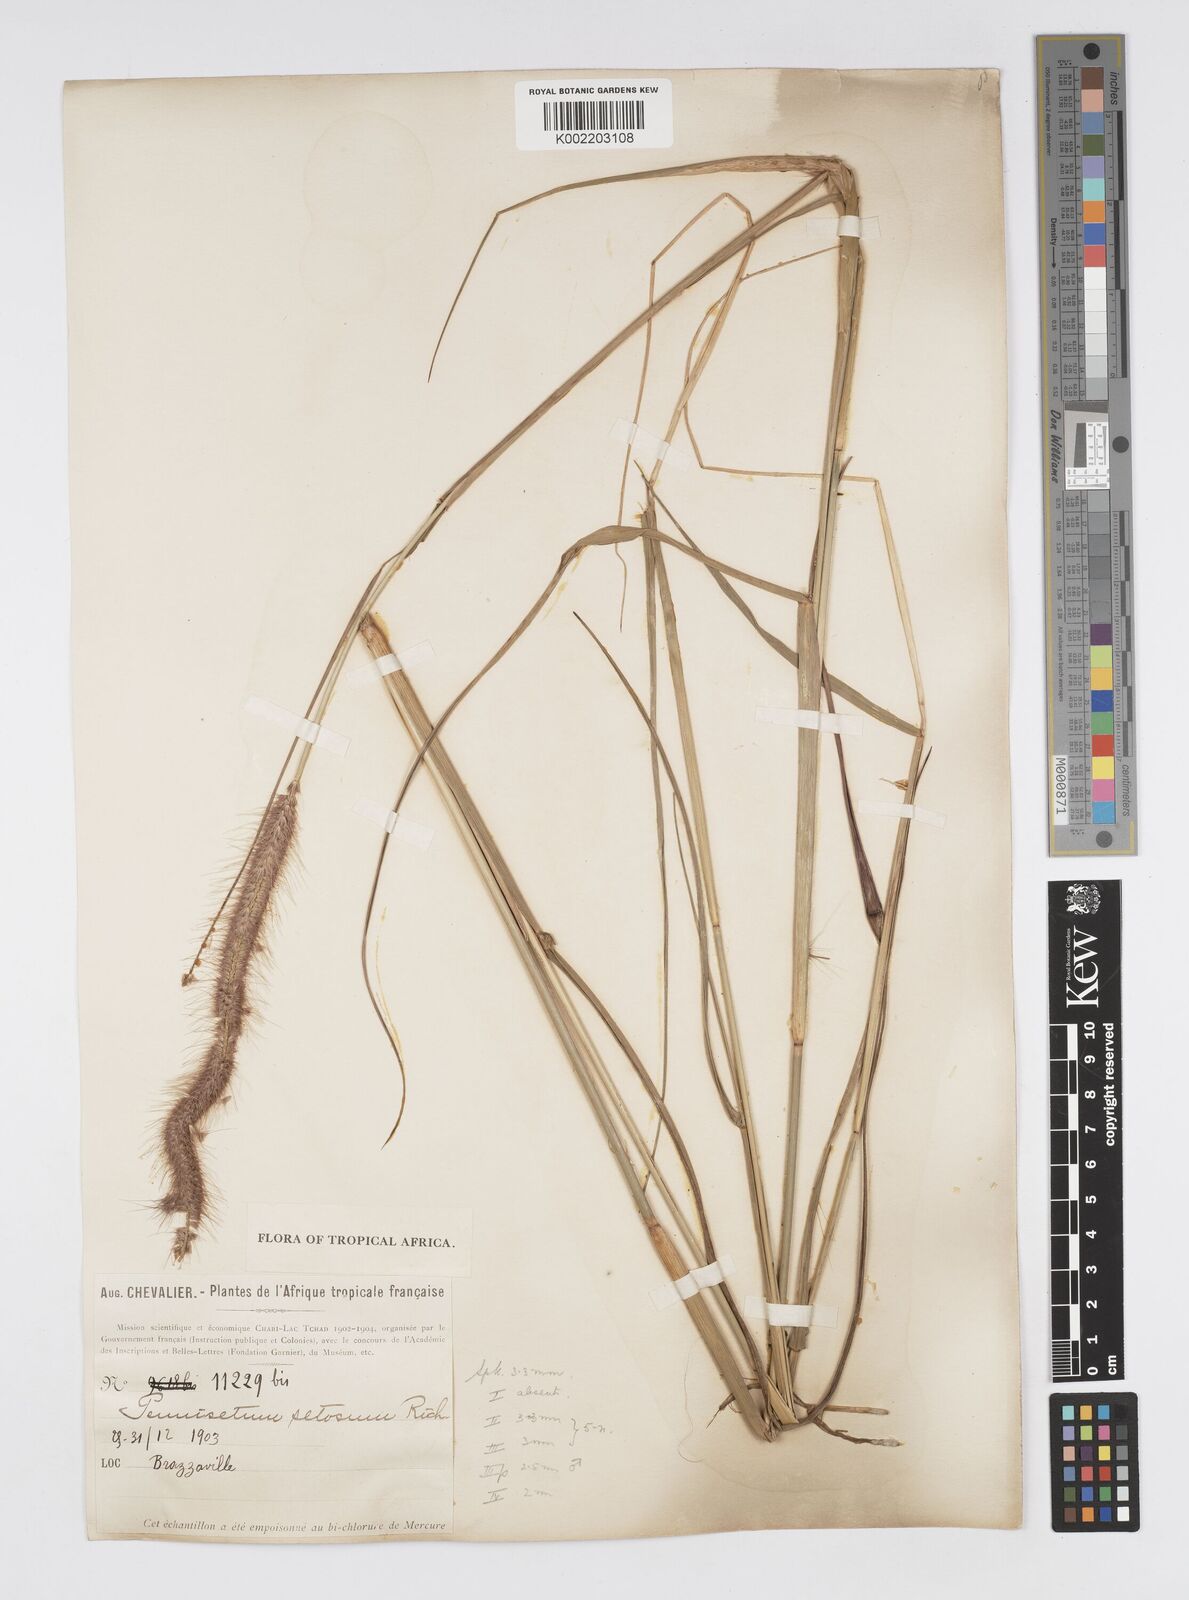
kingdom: Plantae
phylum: Tracheophyta
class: Liliopsida
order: Poales
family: Poaceae
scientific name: Poaceae
